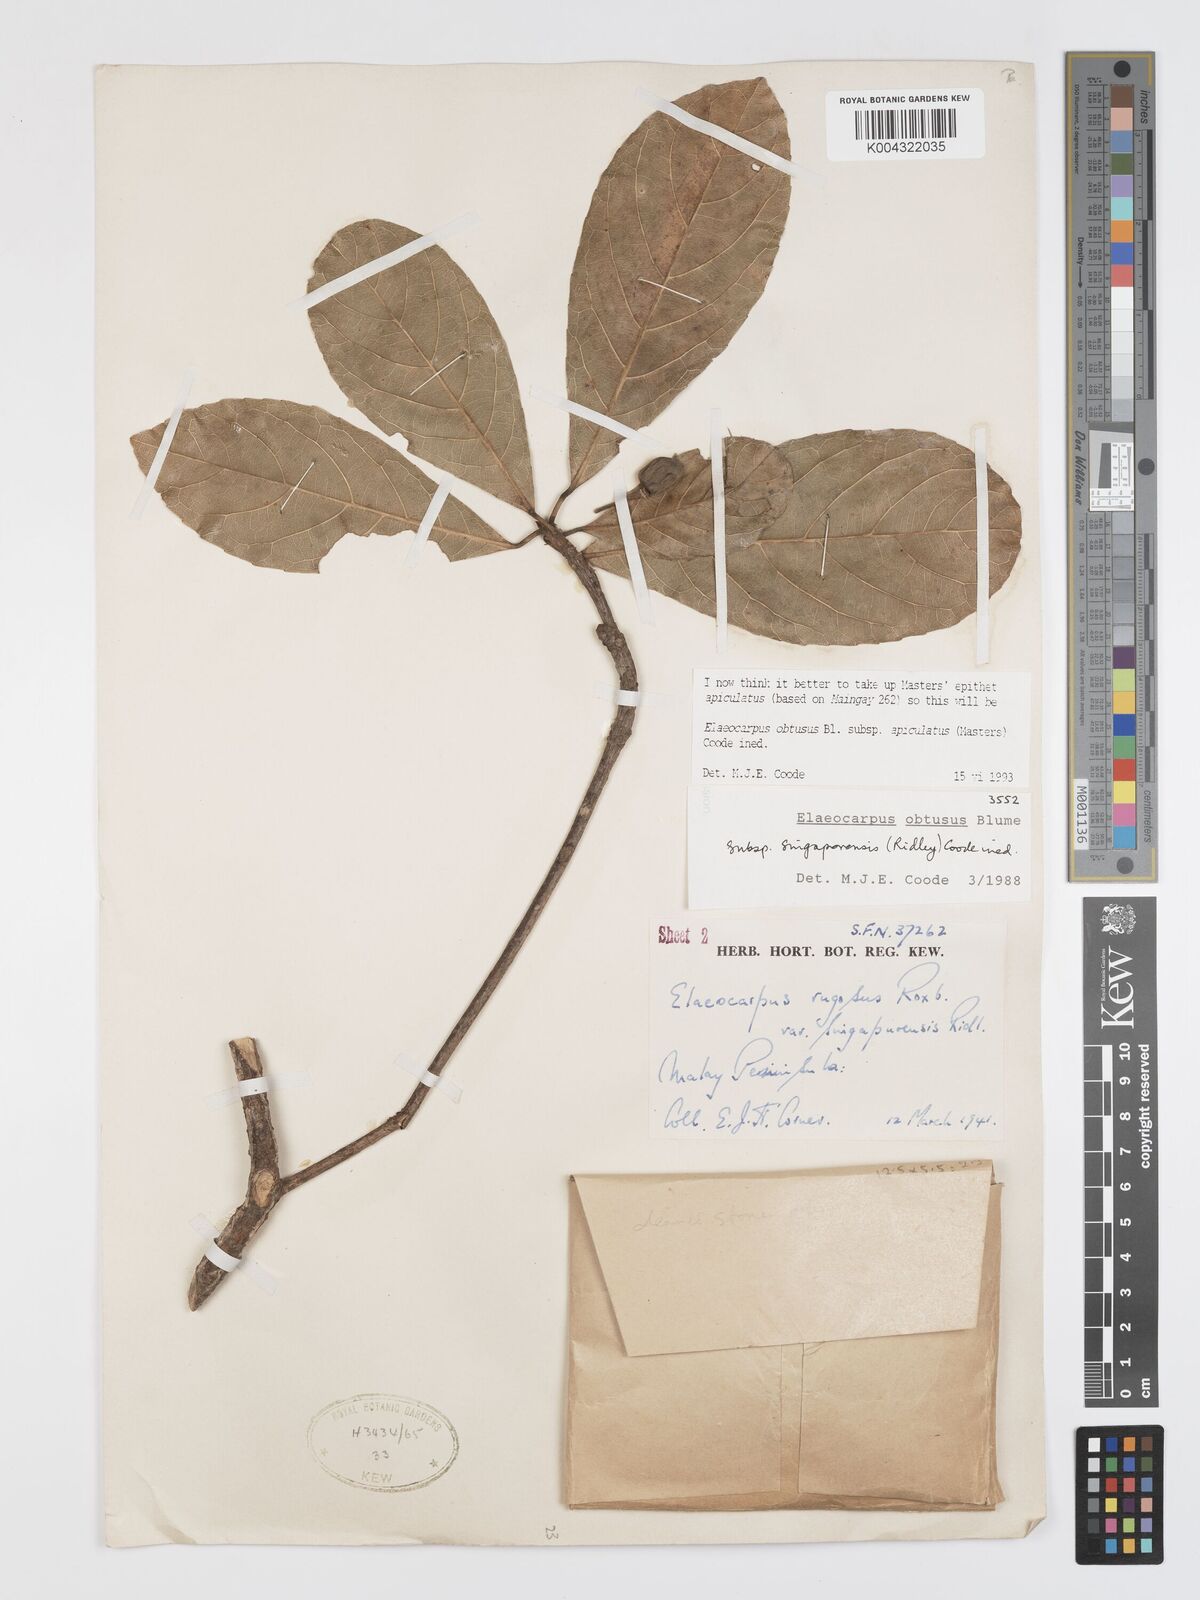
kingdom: Plantae
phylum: Tracheophyta
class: Magnoliopsida
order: Oxalidales
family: Elaeocarpaceae
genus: Elaeocarpus
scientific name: Elaeocarpus obtusus
